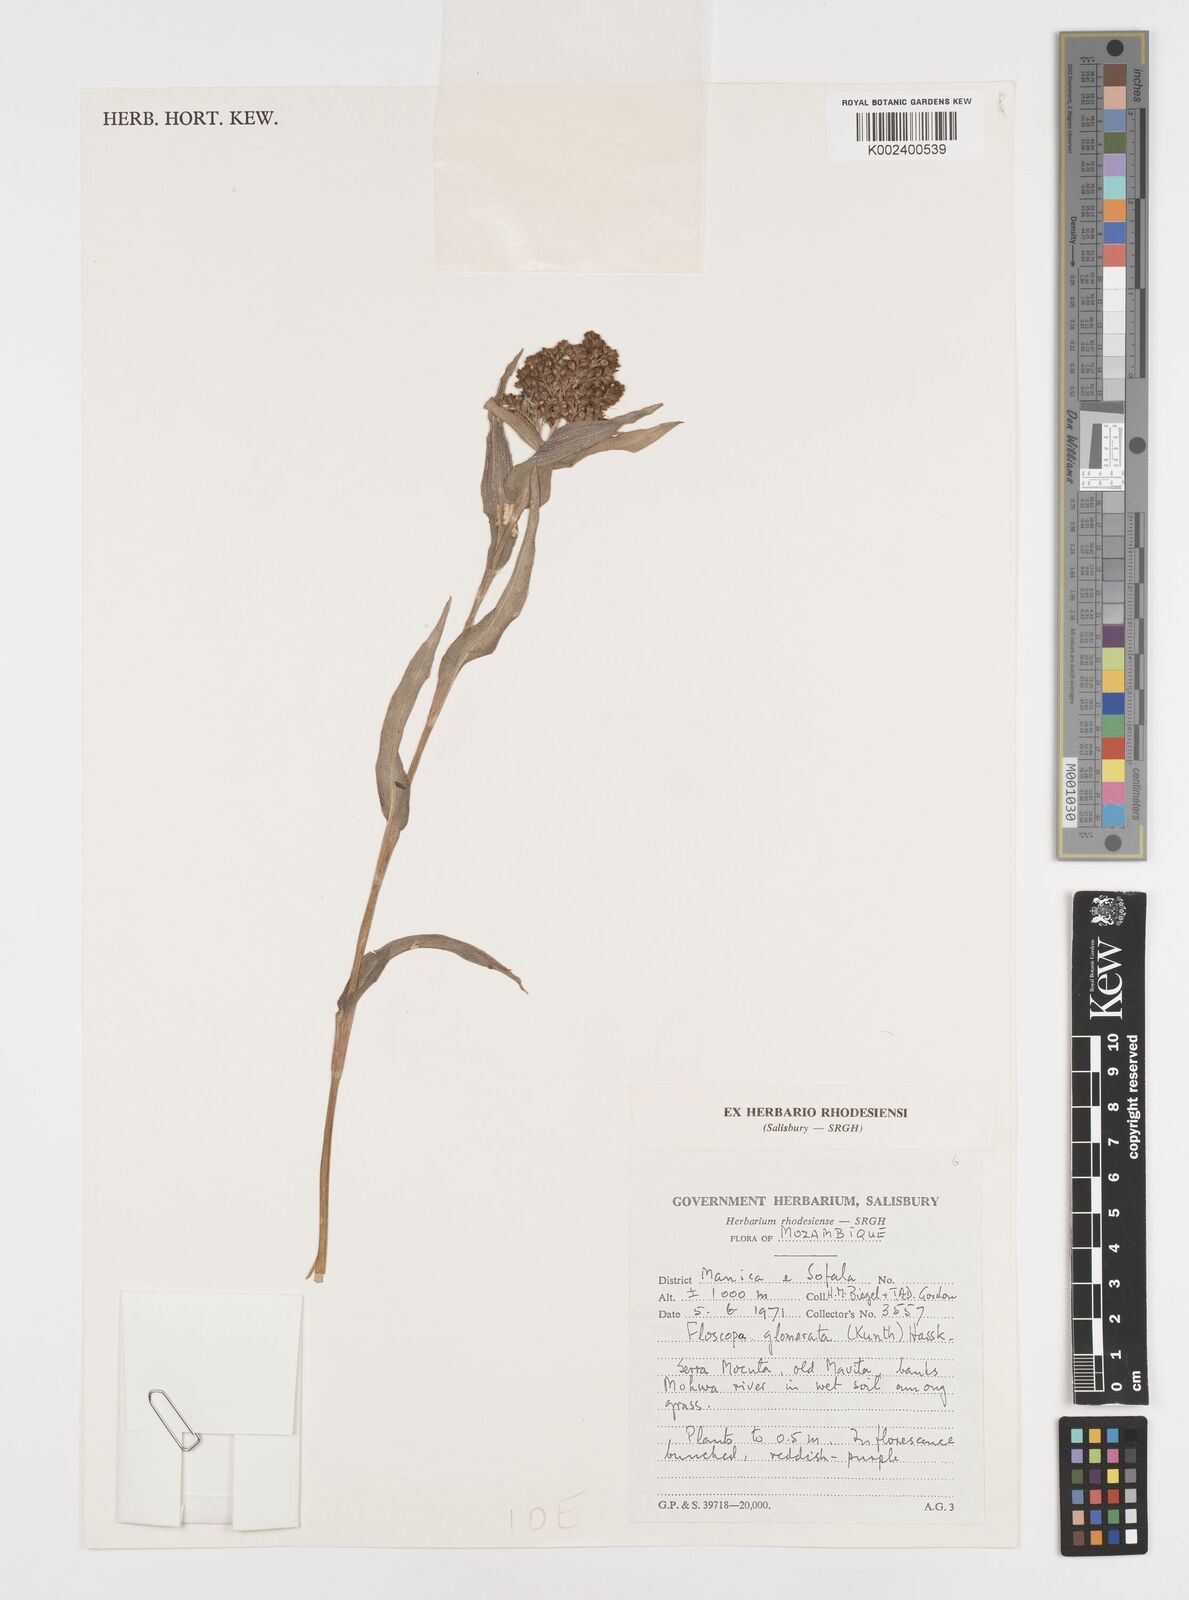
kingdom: Plantae
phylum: Tracheophyta
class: Liliopsida
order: Commelinales
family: Commelinaceae
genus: Floscopa
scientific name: Floscopa glomerata
